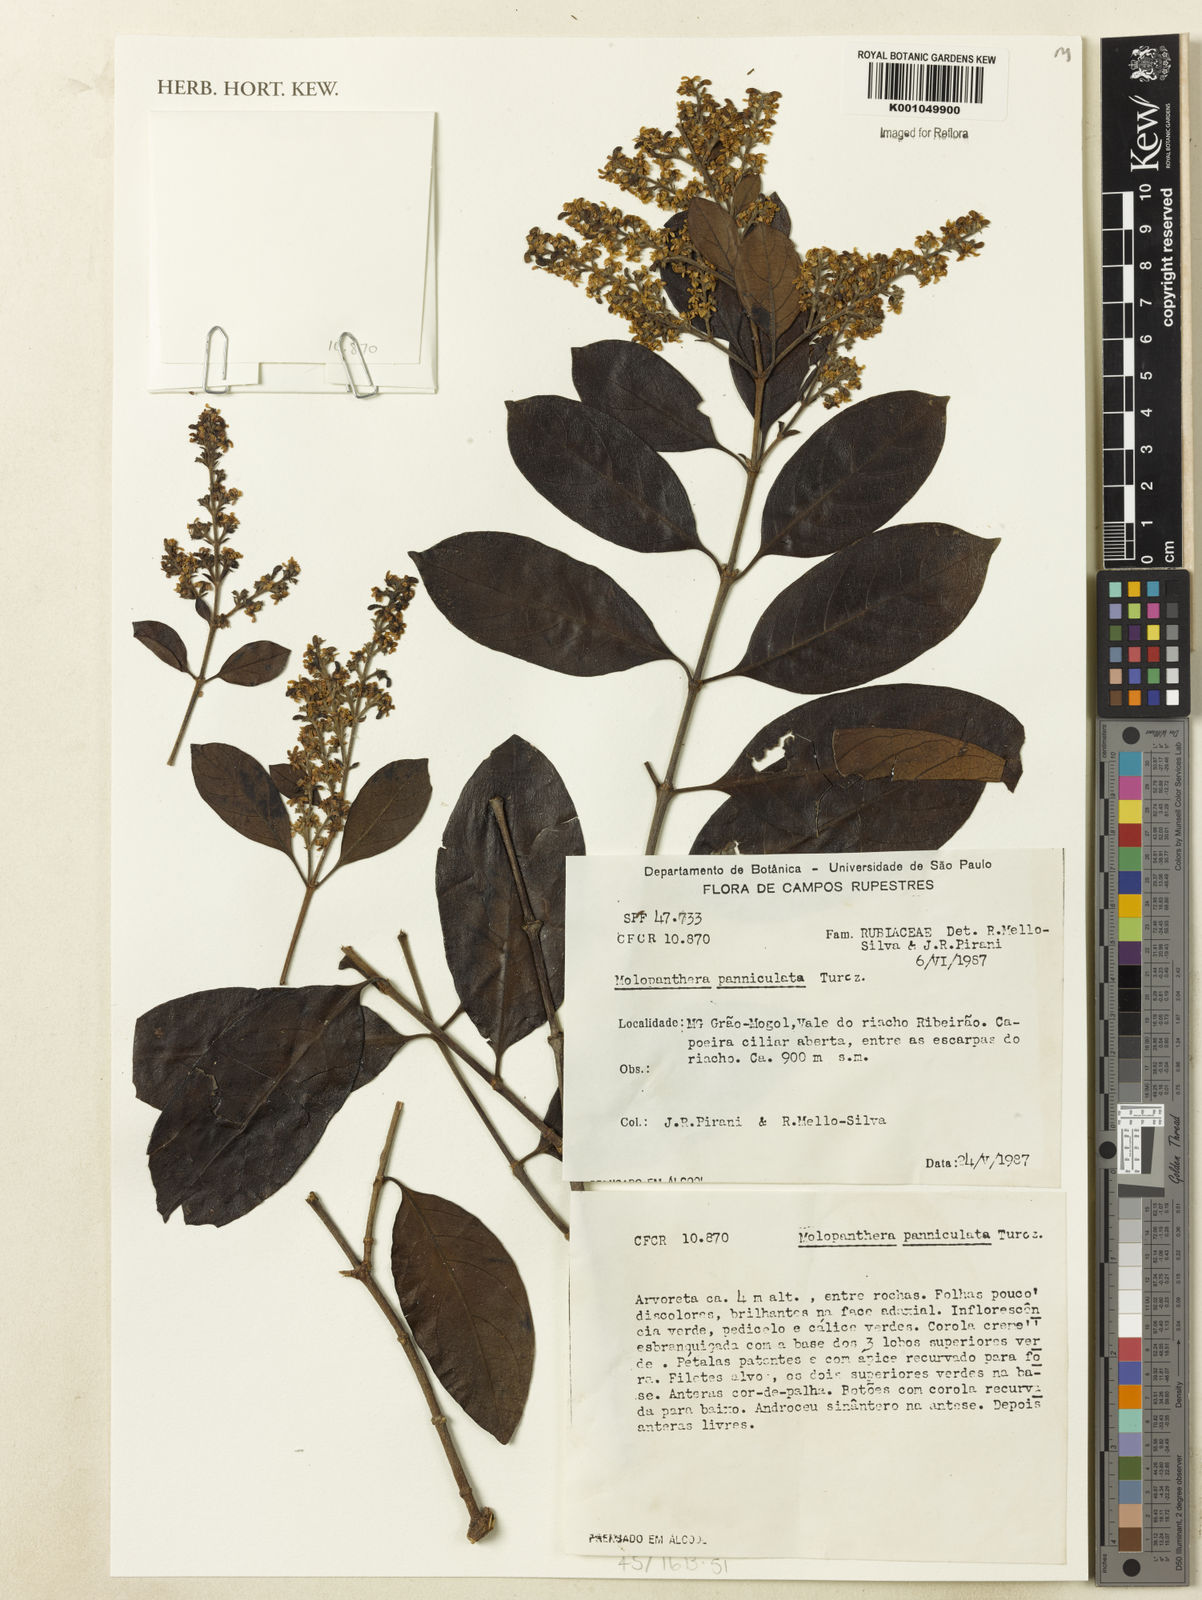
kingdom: Plantae
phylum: Tracheophyta
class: Magnoliopsida
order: Gentianales
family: Rubiaceae
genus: Molopanthera
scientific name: Molopanthera paniculata
